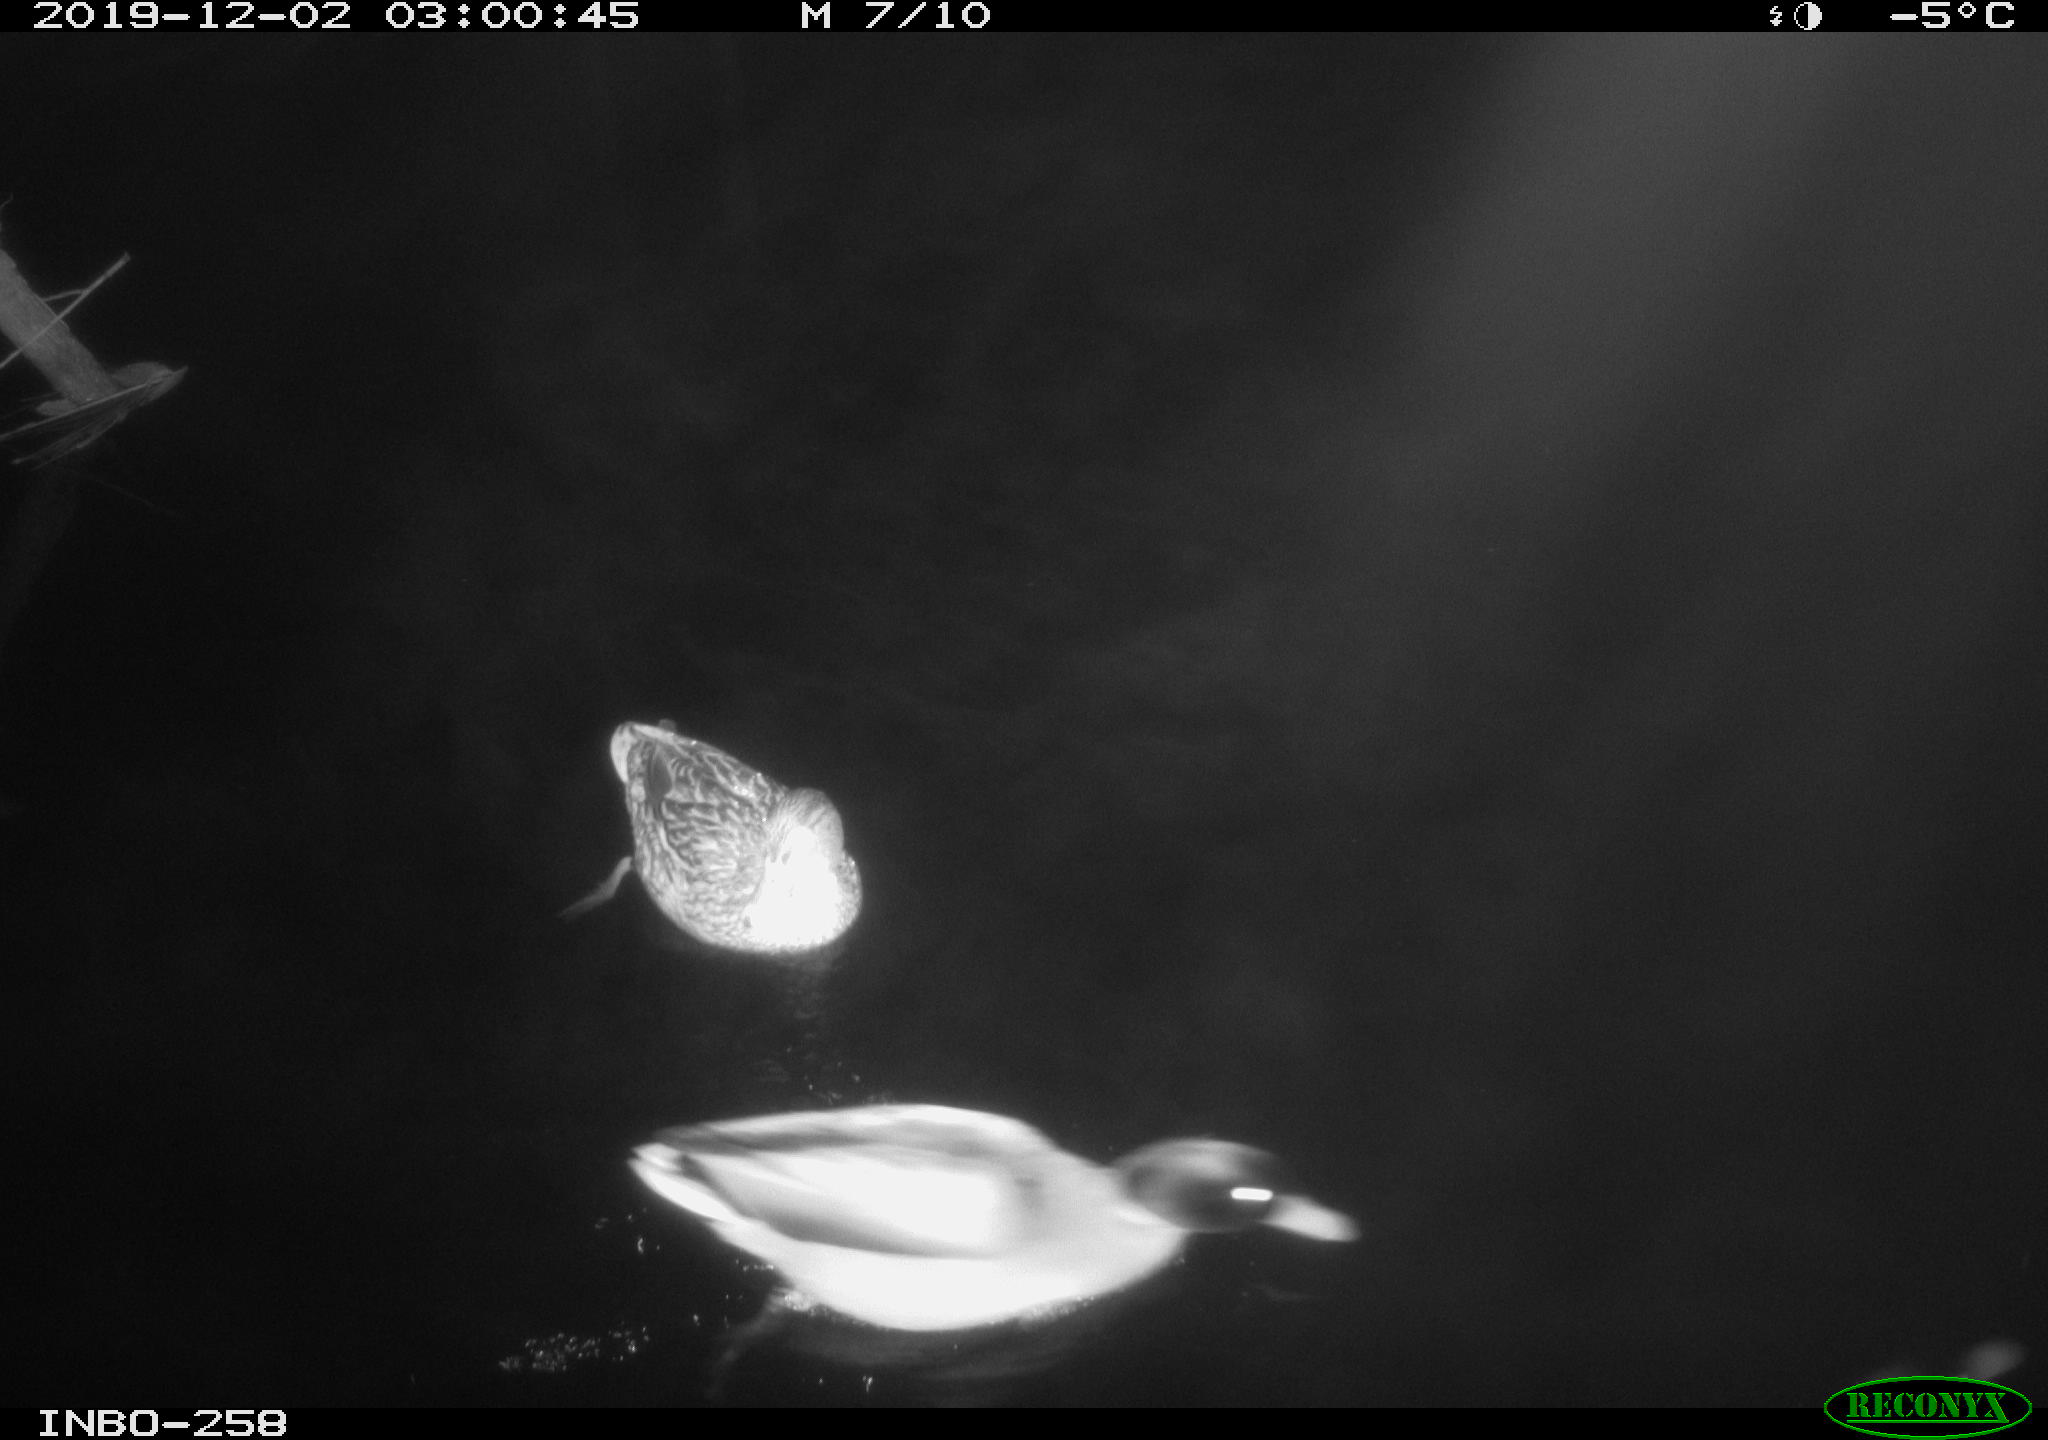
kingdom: Animalia
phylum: Chordata
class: Aves
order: Anseriformes
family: Anatidae
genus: Anas
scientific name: Anas platyrhynchos
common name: Mallard
